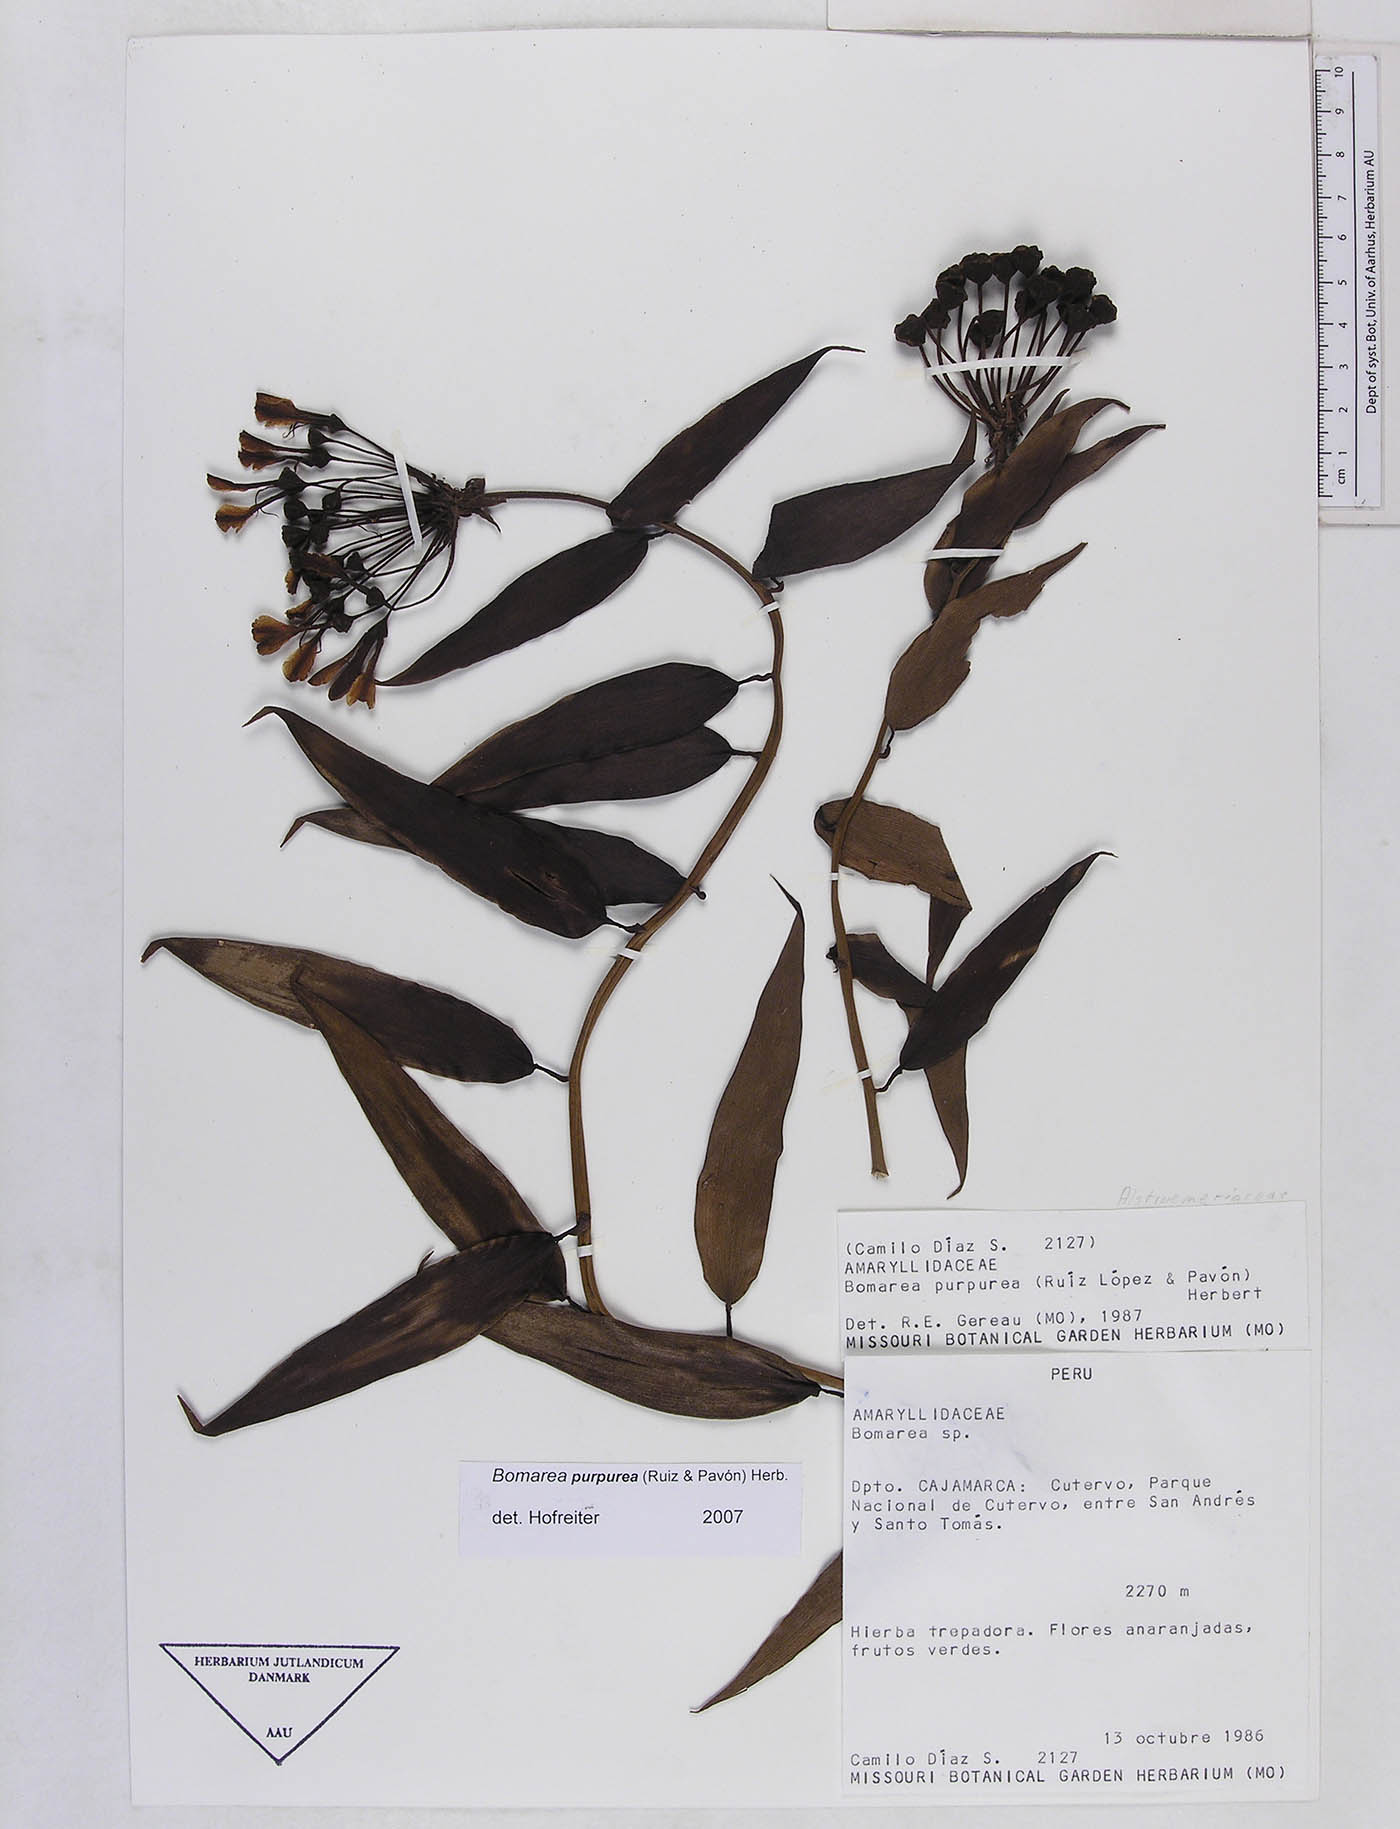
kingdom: Plantae
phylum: Tracheophyta
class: Liliopsida
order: Liliales
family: Alstroemeriaceae
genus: Bomarea
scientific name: Bomarea purpurea
